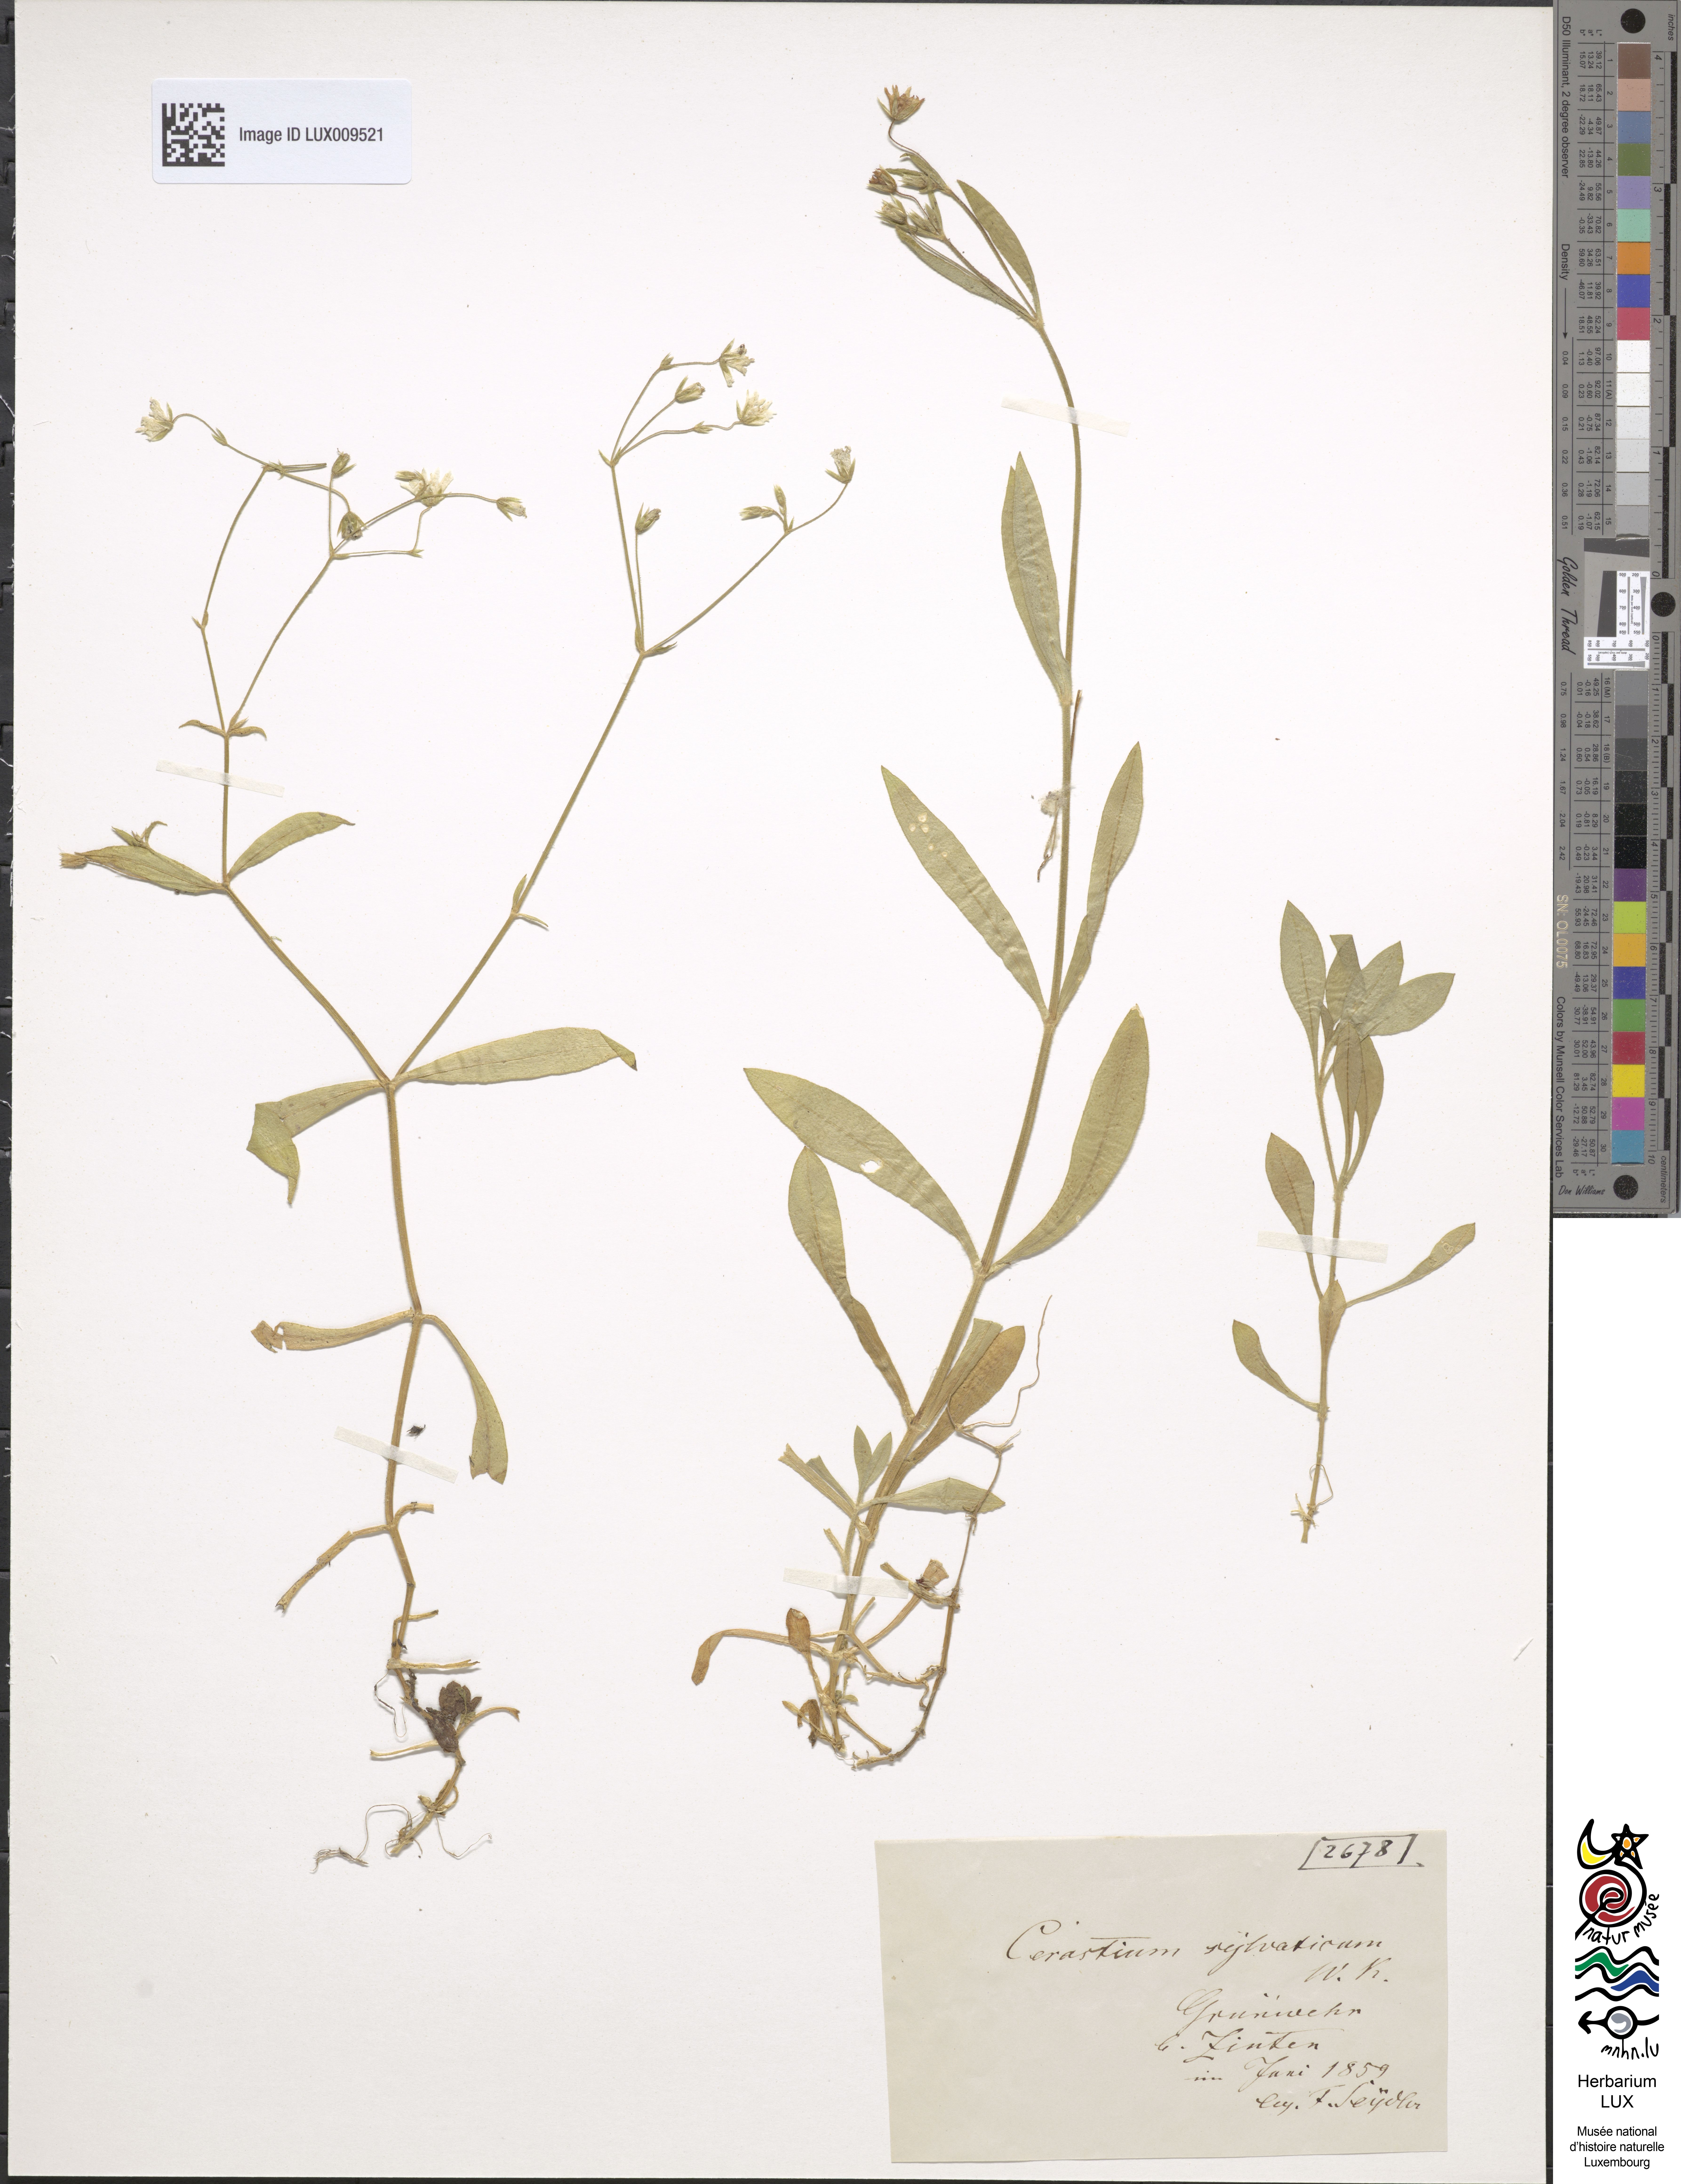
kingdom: Plantae
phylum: Tracheophyta
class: Magnoliopsida
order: Caryophyllales
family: Caryophyllaceae
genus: Cerastium
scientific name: Cerastium sylvaticum
